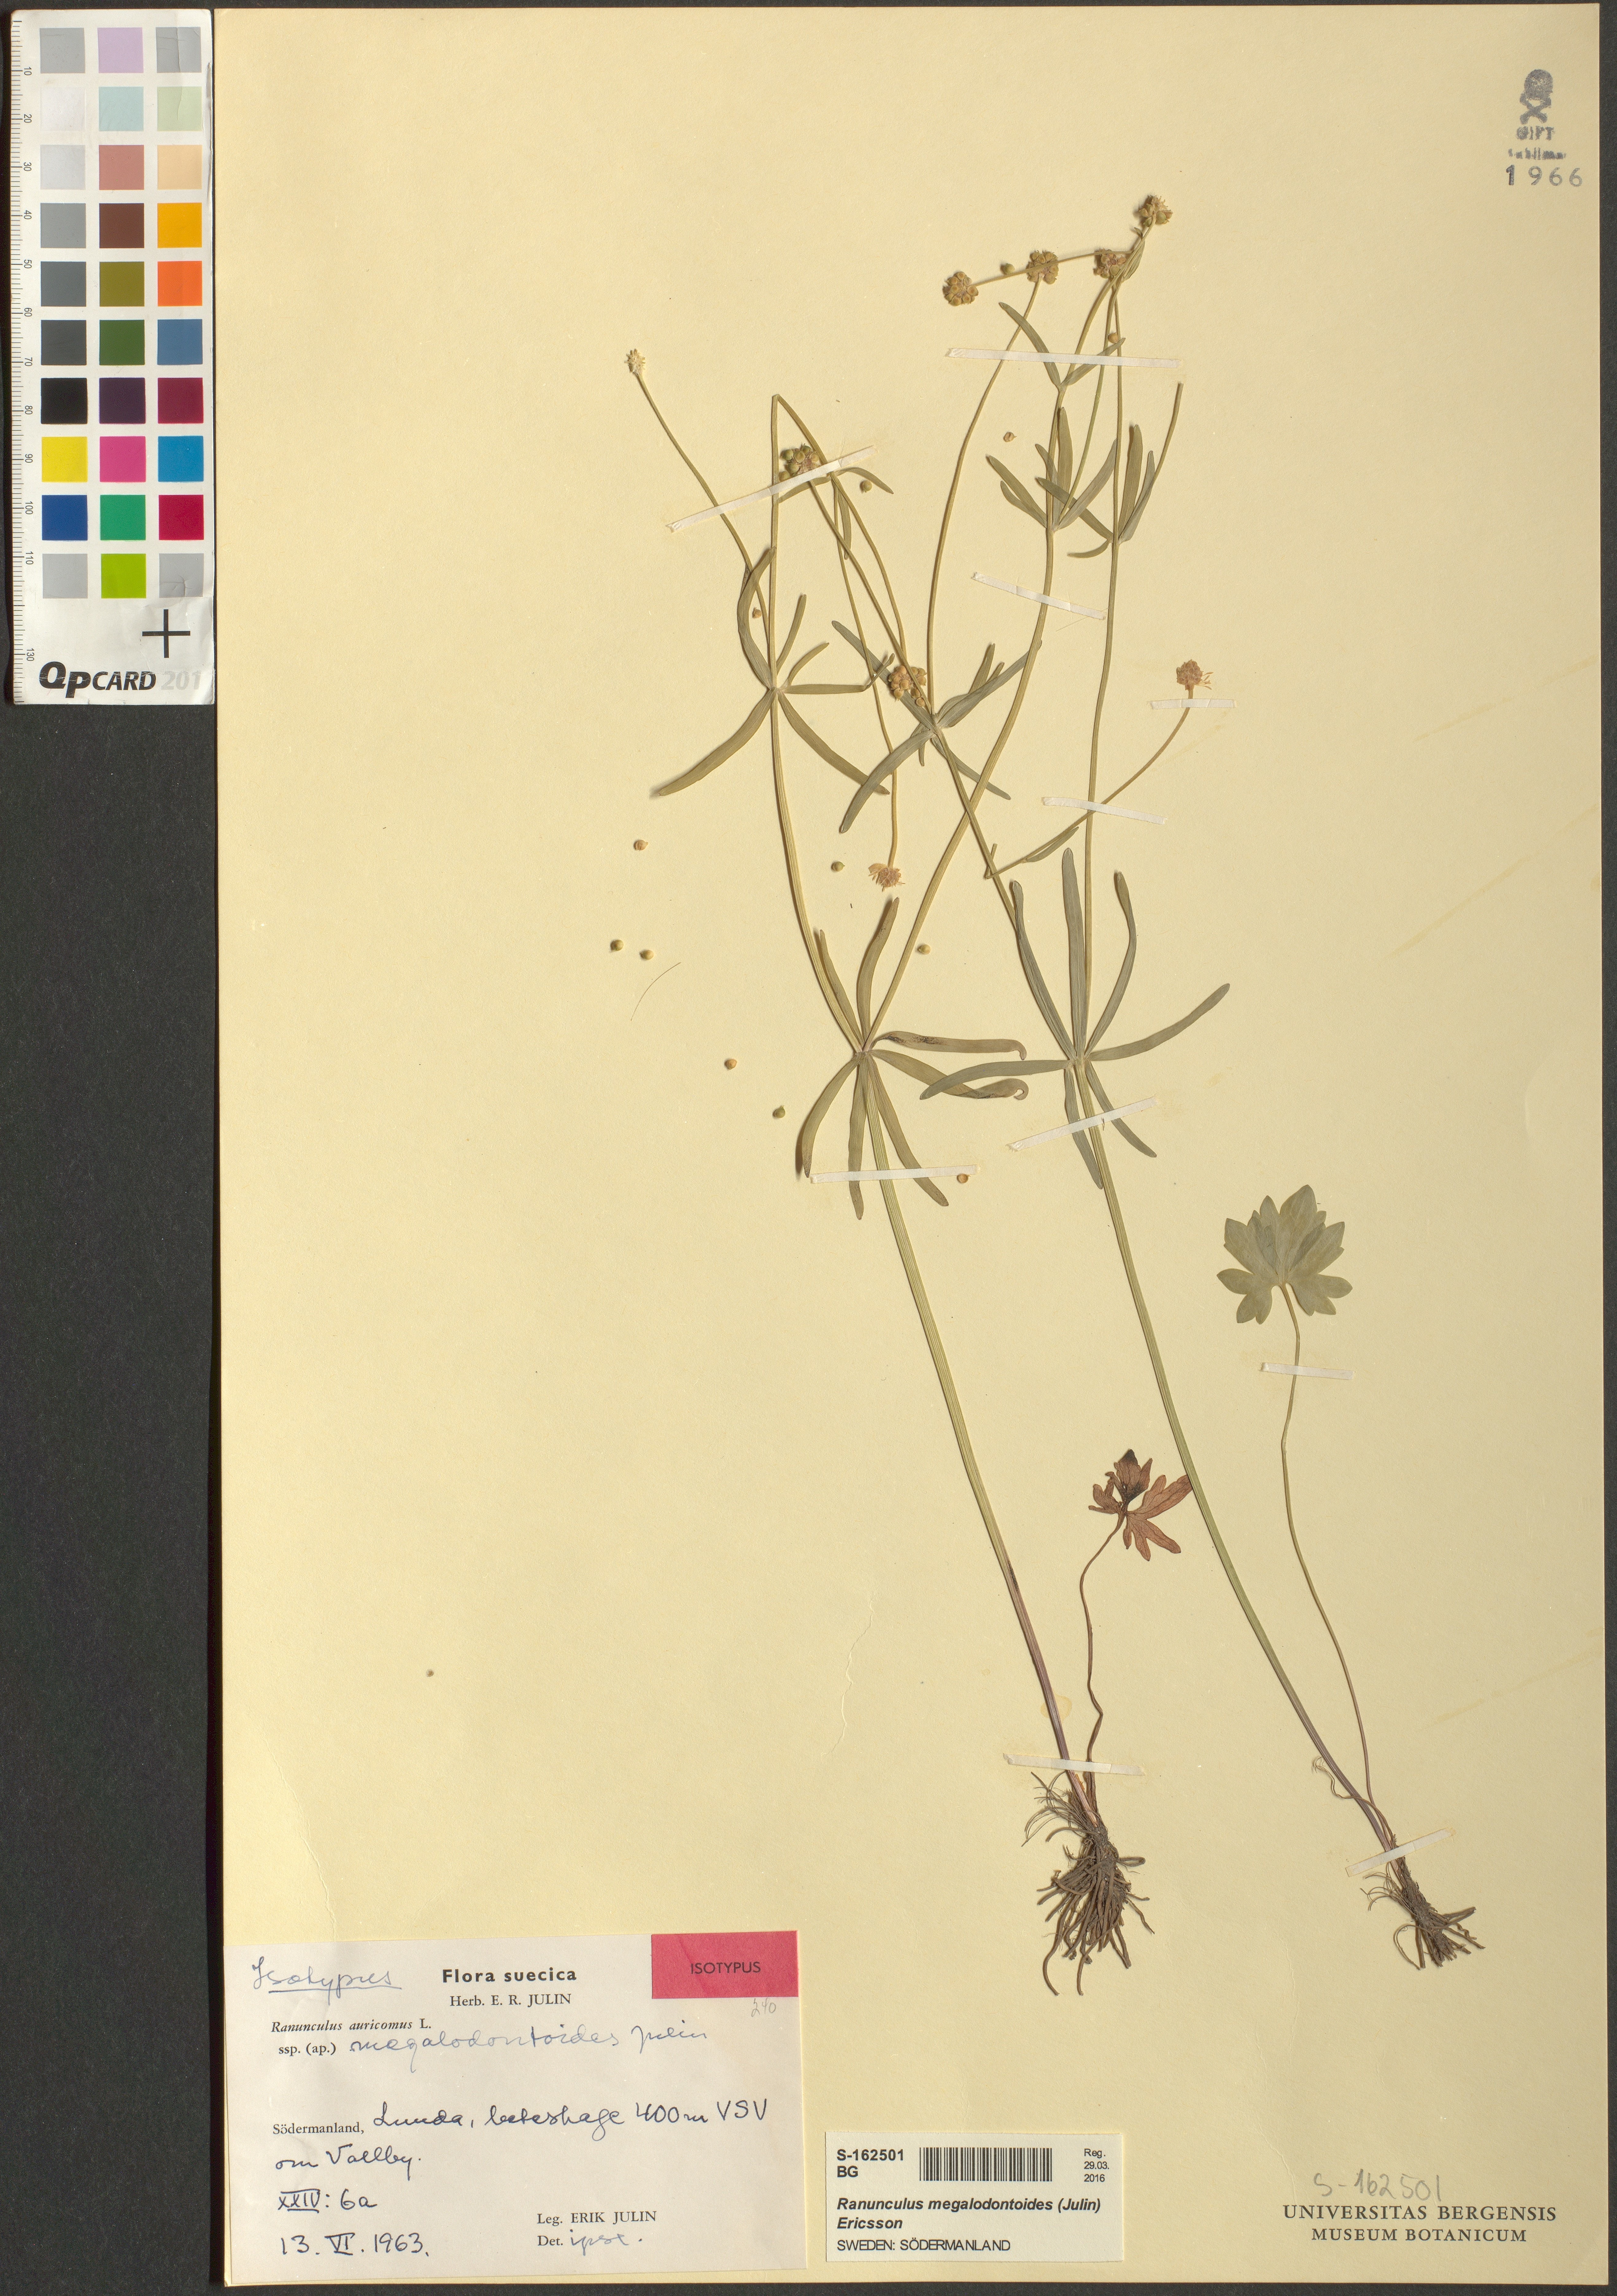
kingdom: Plantae
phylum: Tracheophyta
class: Magnoliopsida
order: Ranunculales
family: Ranunculaceae
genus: Ranunculus
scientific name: Ranunculus megalodontoides
